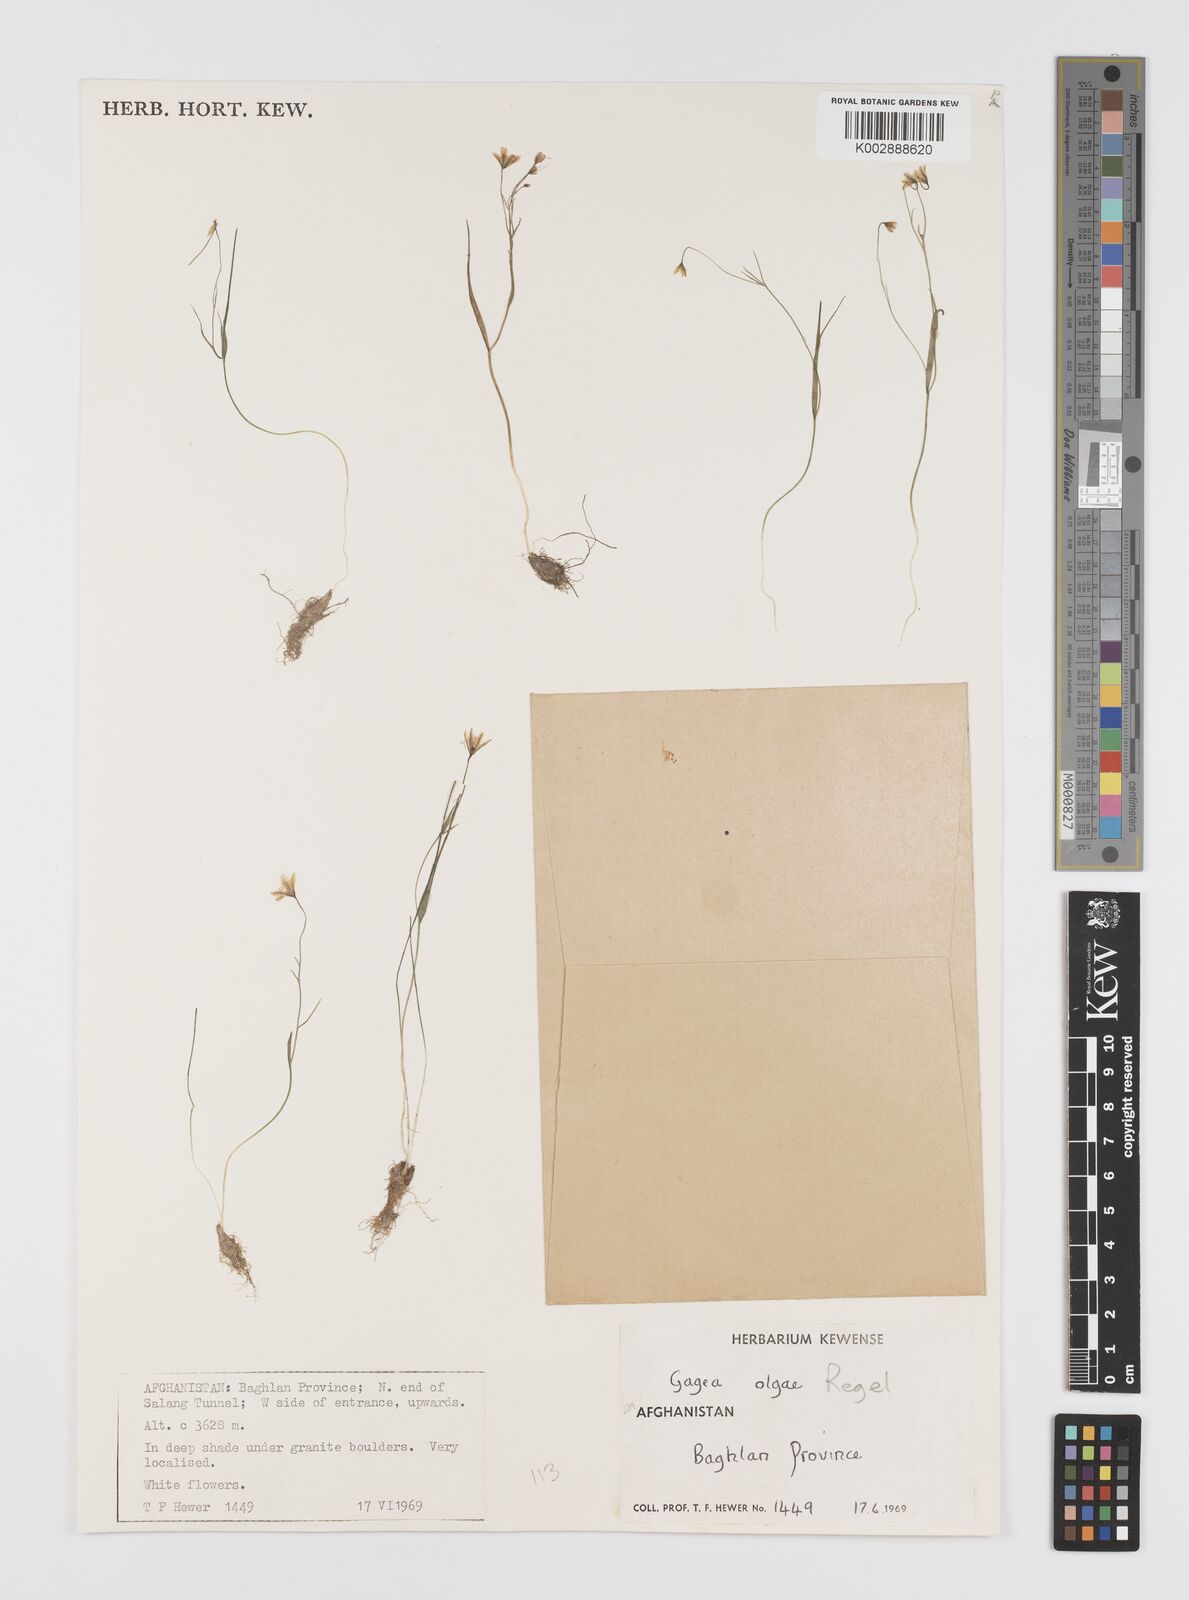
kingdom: Plantae
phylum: Tracheophyta
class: Liliopsida
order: Liliales
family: Liliaceae
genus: Gagea
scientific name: Gagea olgae
